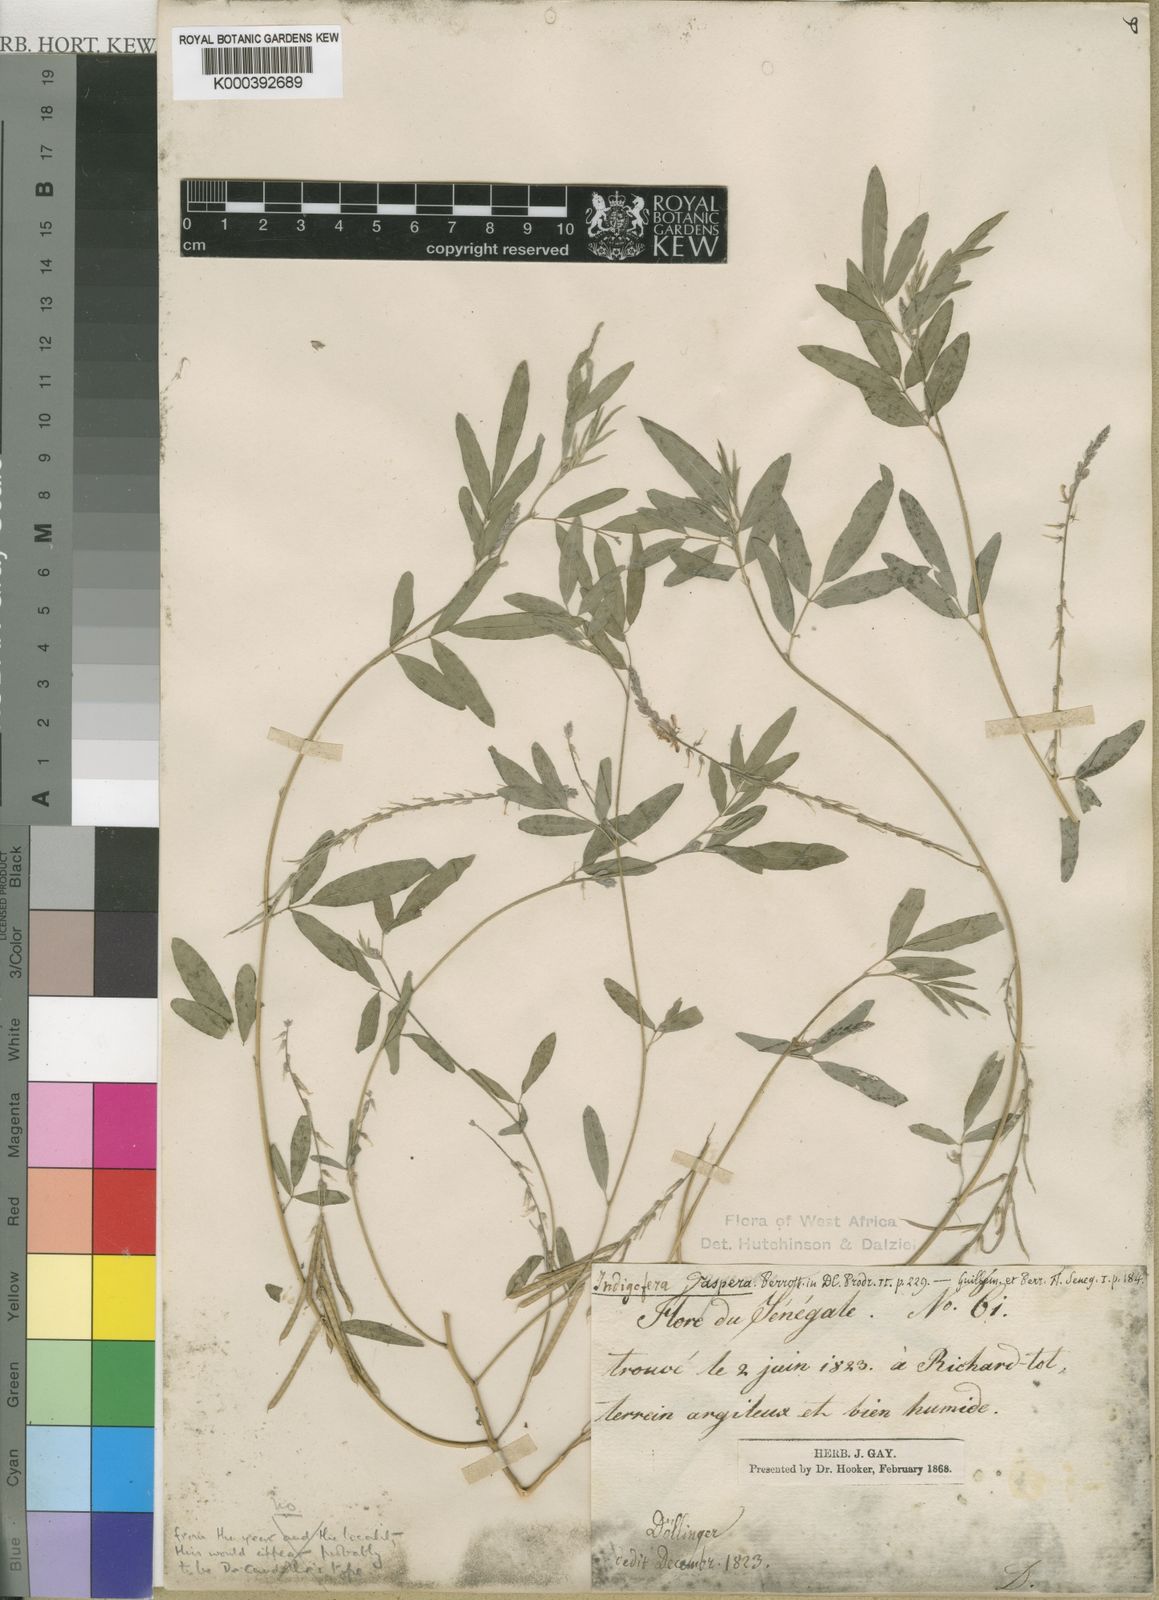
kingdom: Plantae
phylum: Tracheophyta
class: Magnoliopsida
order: Fabales
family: Fabaceae
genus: Indigofera
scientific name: Indigofera aspera
